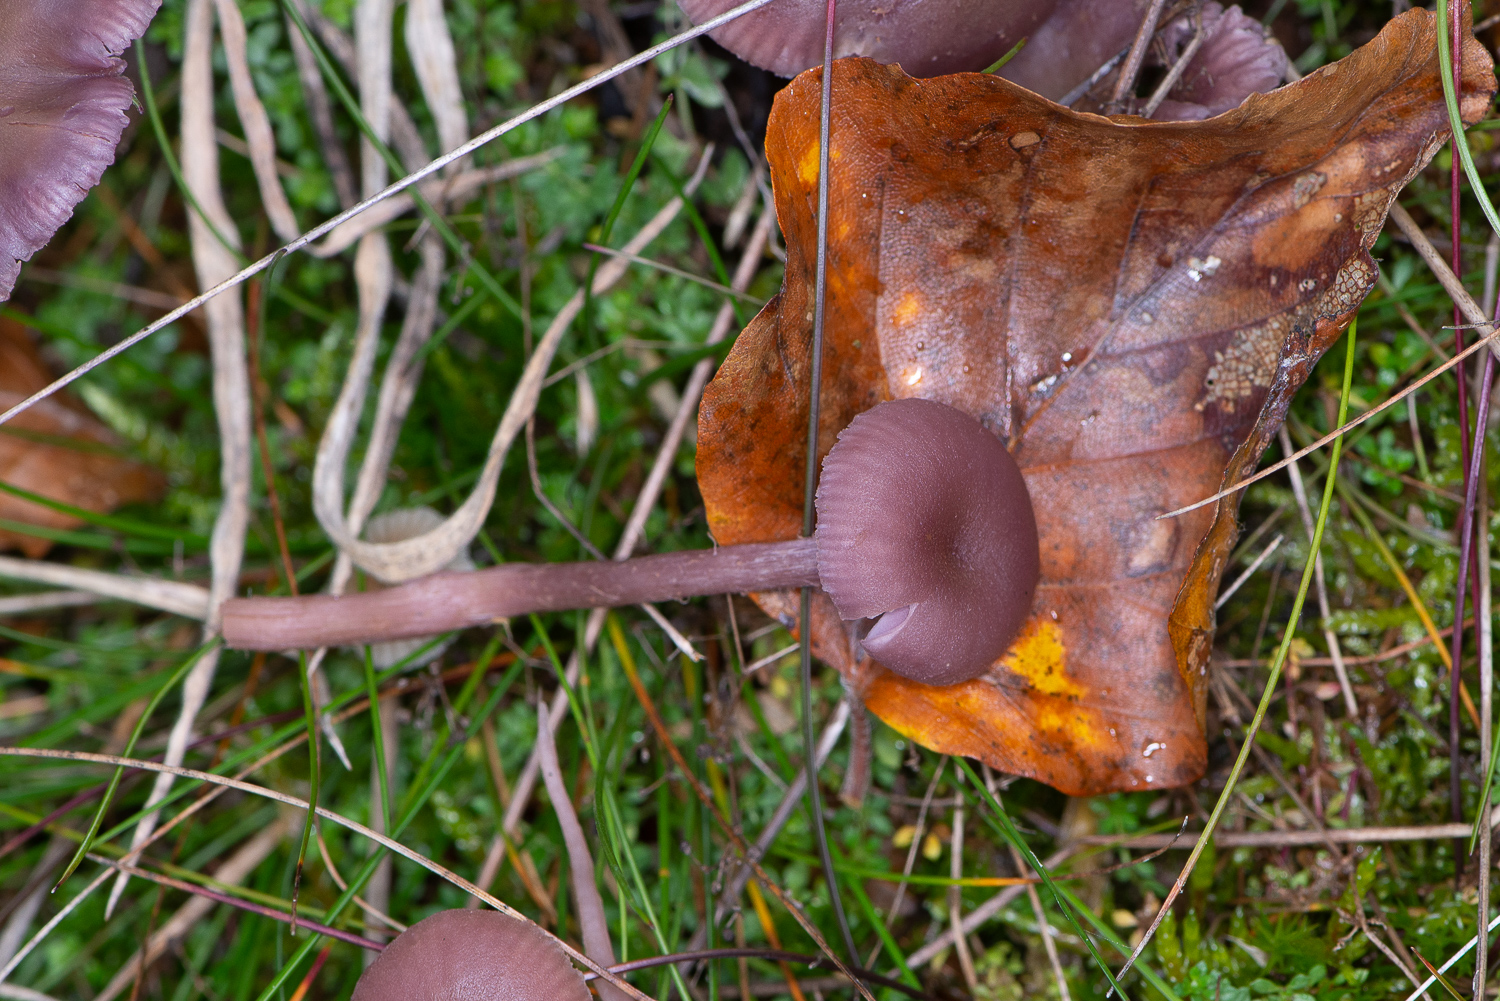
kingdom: Fungi
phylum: Basidiomycota
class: Agaricomycetes
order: Agaricales
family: Hydnangiaceae
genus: Laccaria
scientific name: Laccaria amethystina
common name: violet ametysthat
